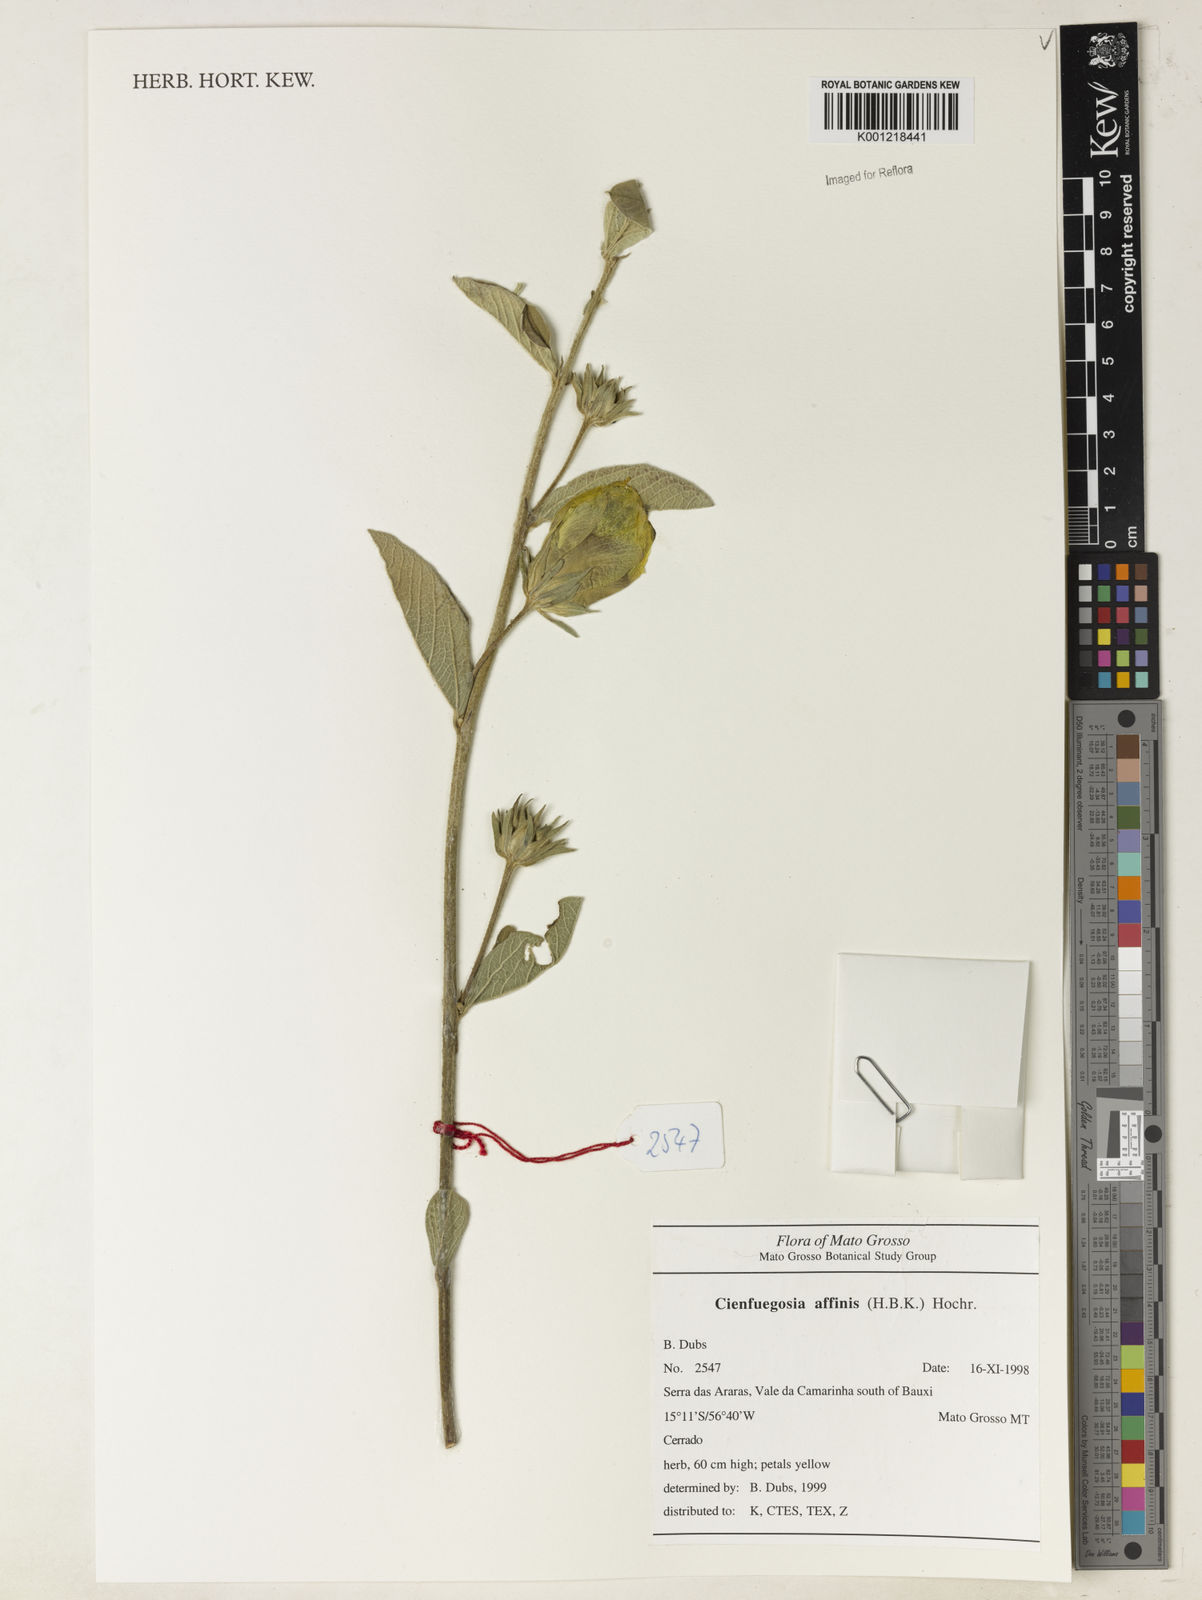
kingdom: Plantae
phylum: Tracheophyta
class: Magnoliopsida
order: Malvales
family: Malvaceae
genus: Cienfuegosia
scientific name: Cienfuegosia affinis
